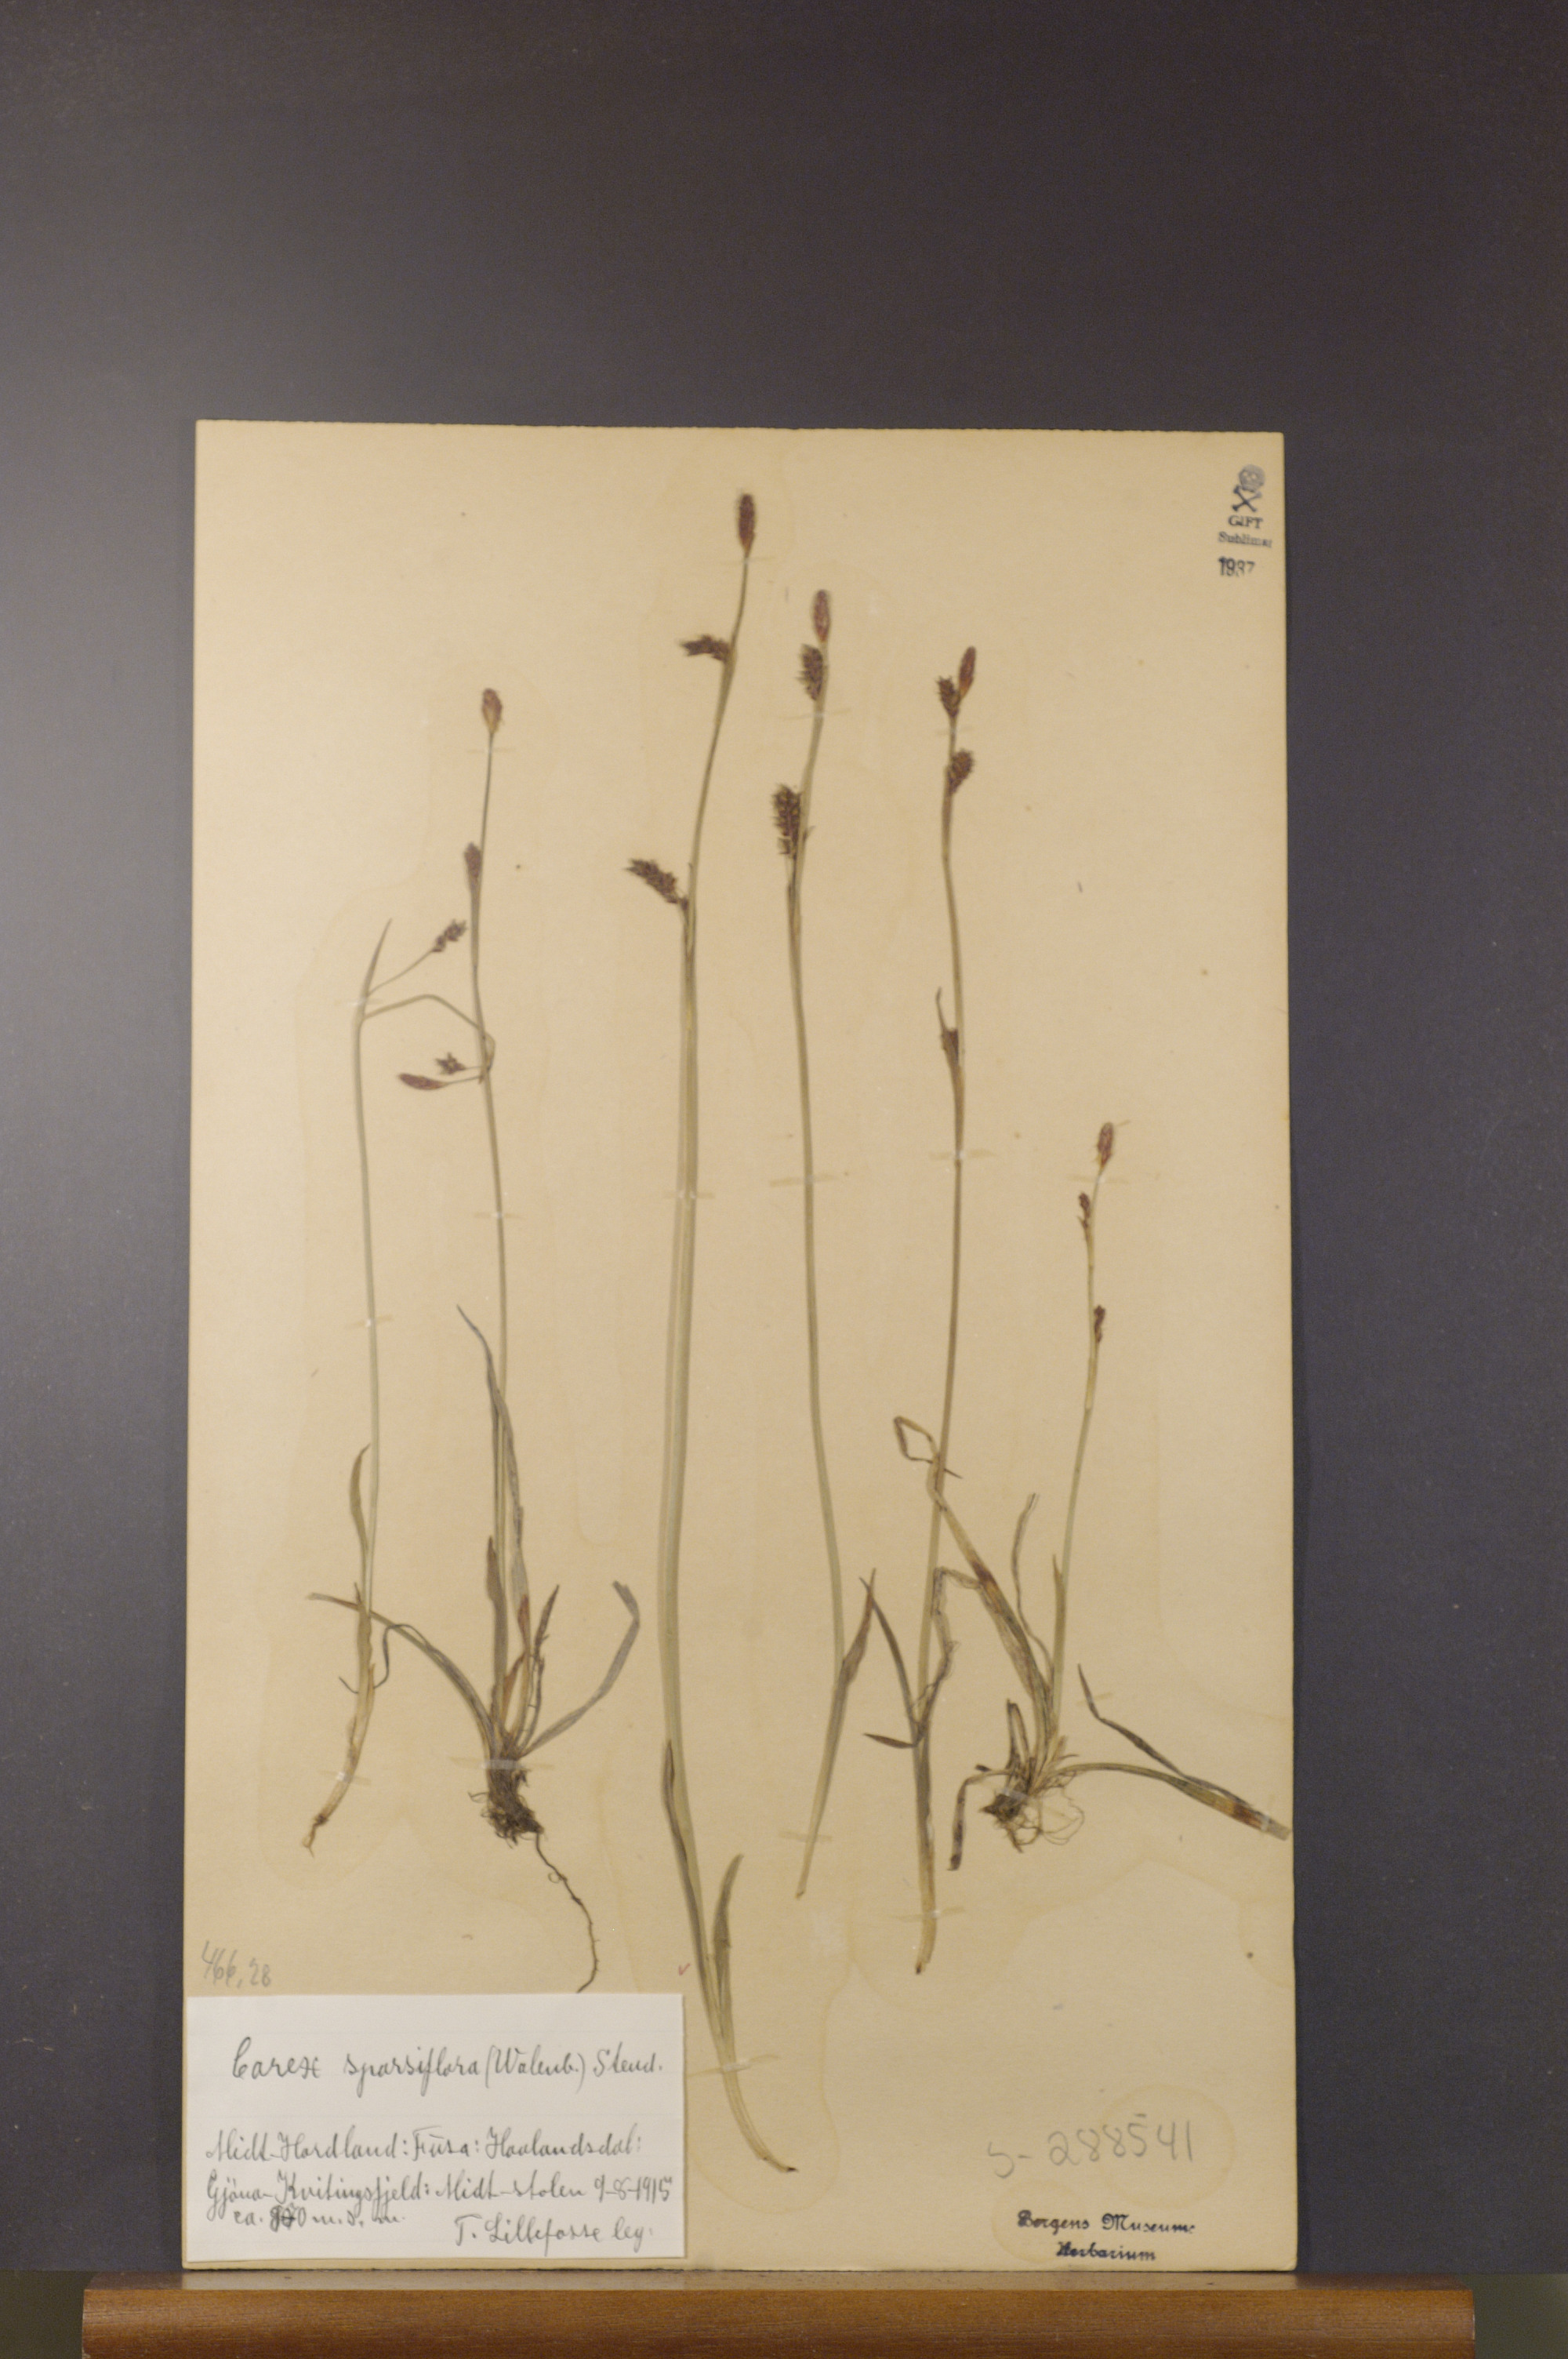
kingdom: Plantae
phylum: Tracheophyta
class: Liliopsida
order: Poales
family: Cyperaceae
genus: Carex
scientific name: Carex vaginata
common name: Sheathed sedge
